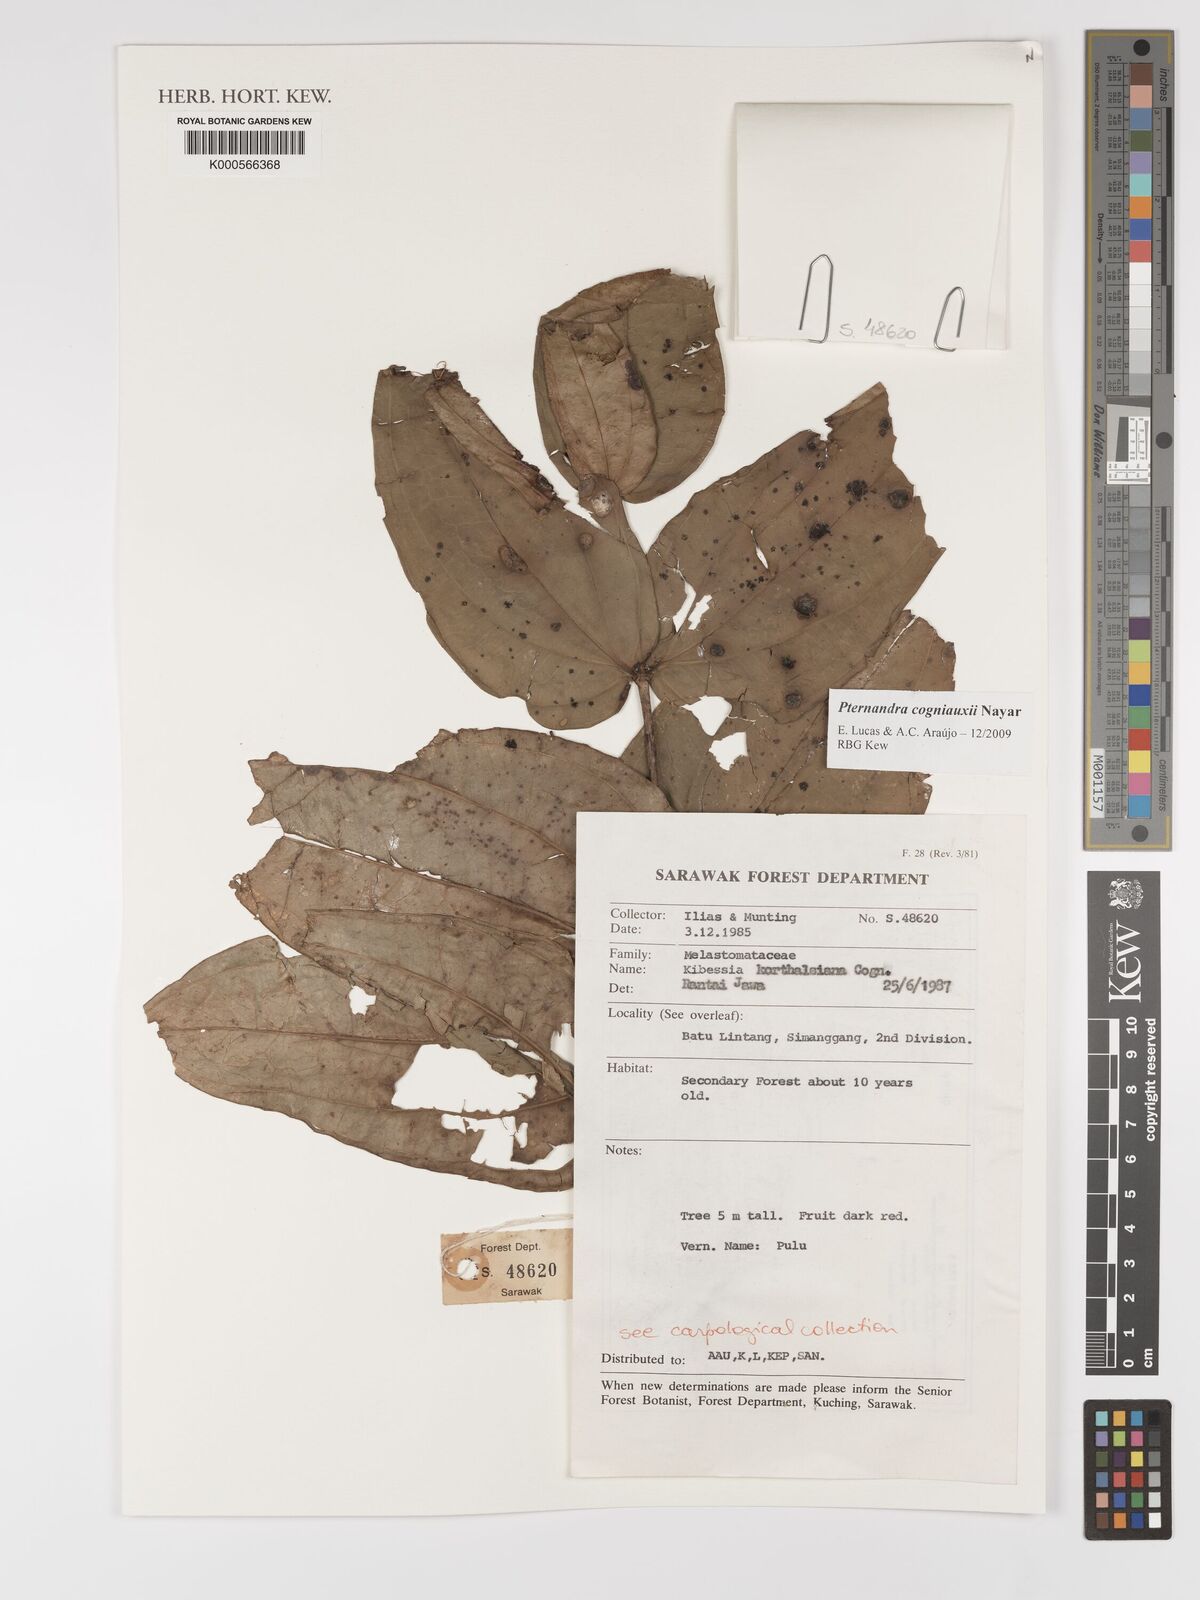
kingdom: Plantae
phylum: Tracheophyta
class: Magnoliopsida
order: Myrtales
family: Melastomataceae
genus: Pternandra
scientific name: Pternandra cogniauxii
